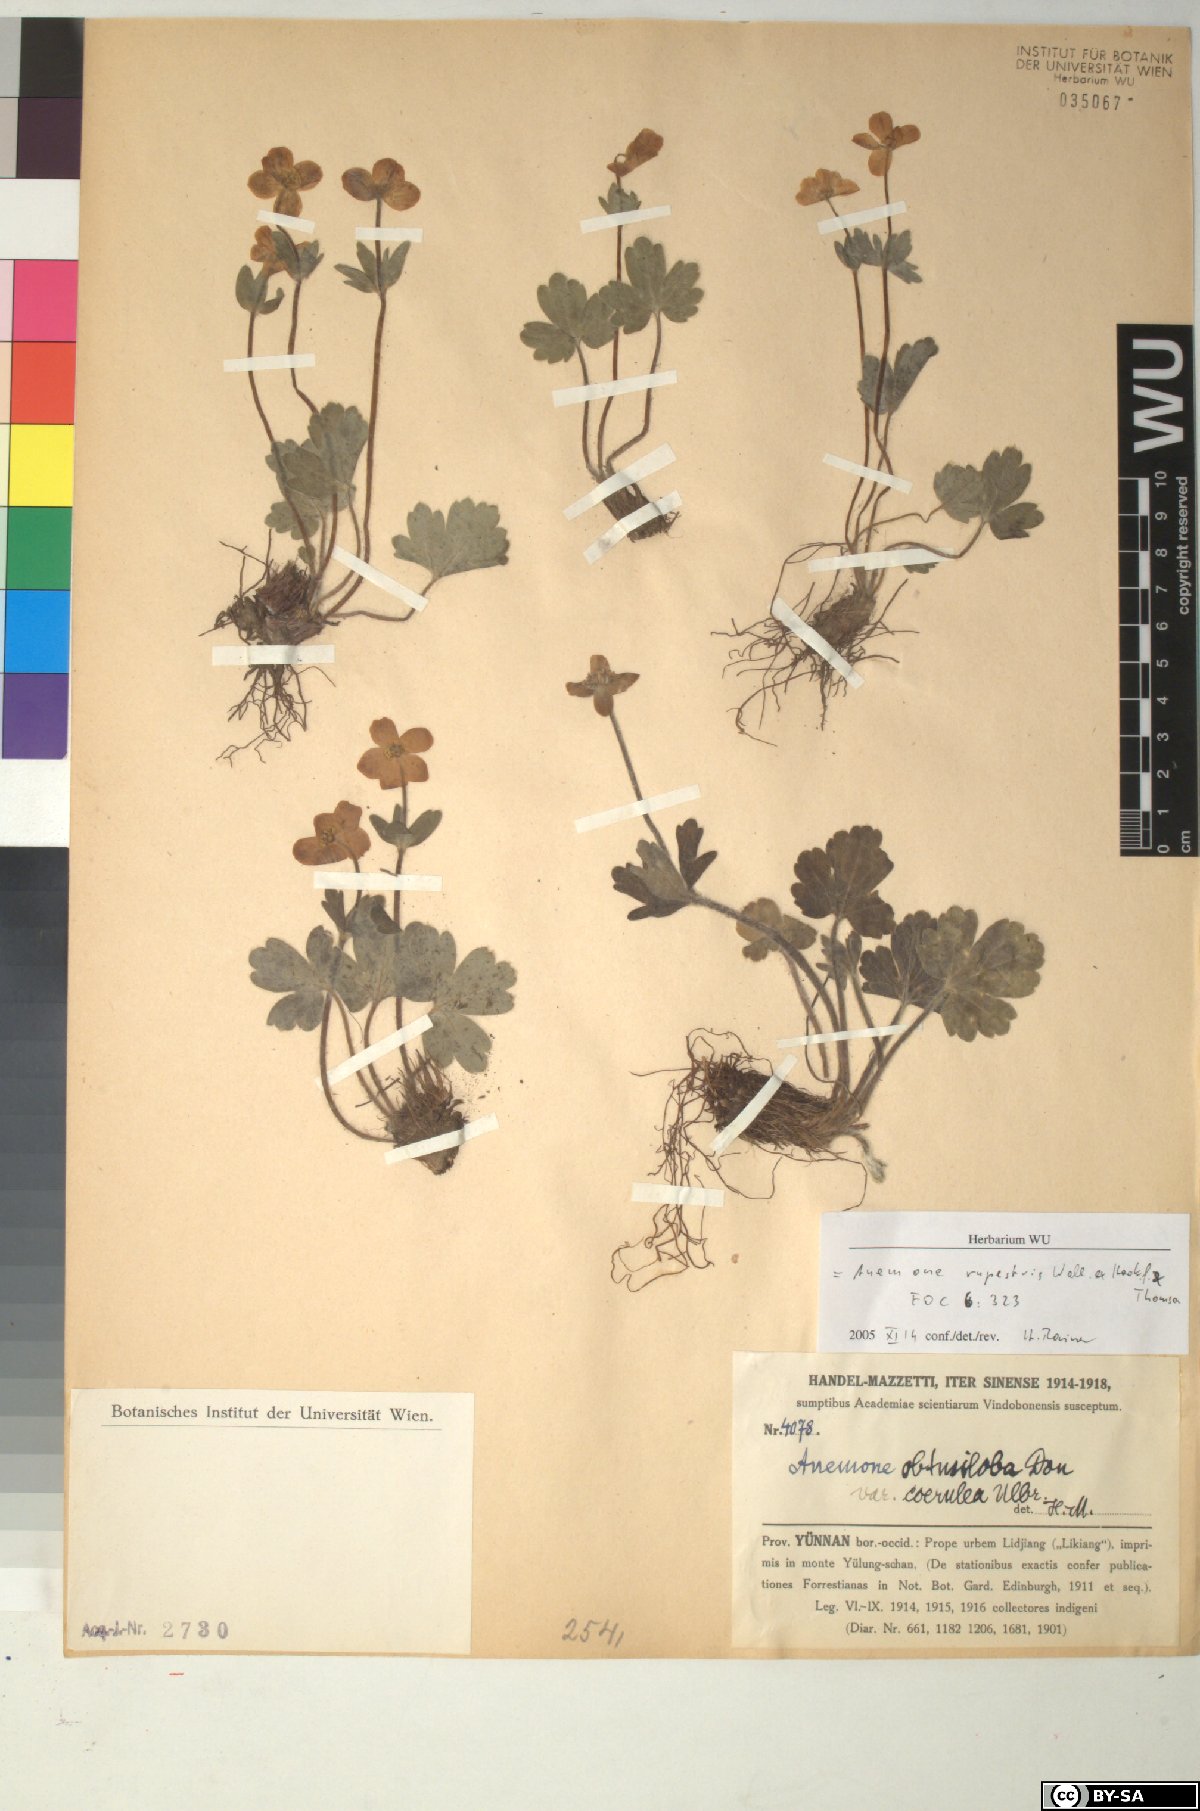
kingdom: Plantae
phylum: Tracheophyta
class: Magnoliopsida
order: Ranunculales
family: Ranunculaceae
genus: Anemonastrum
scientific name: Anemonastrum rupestre
